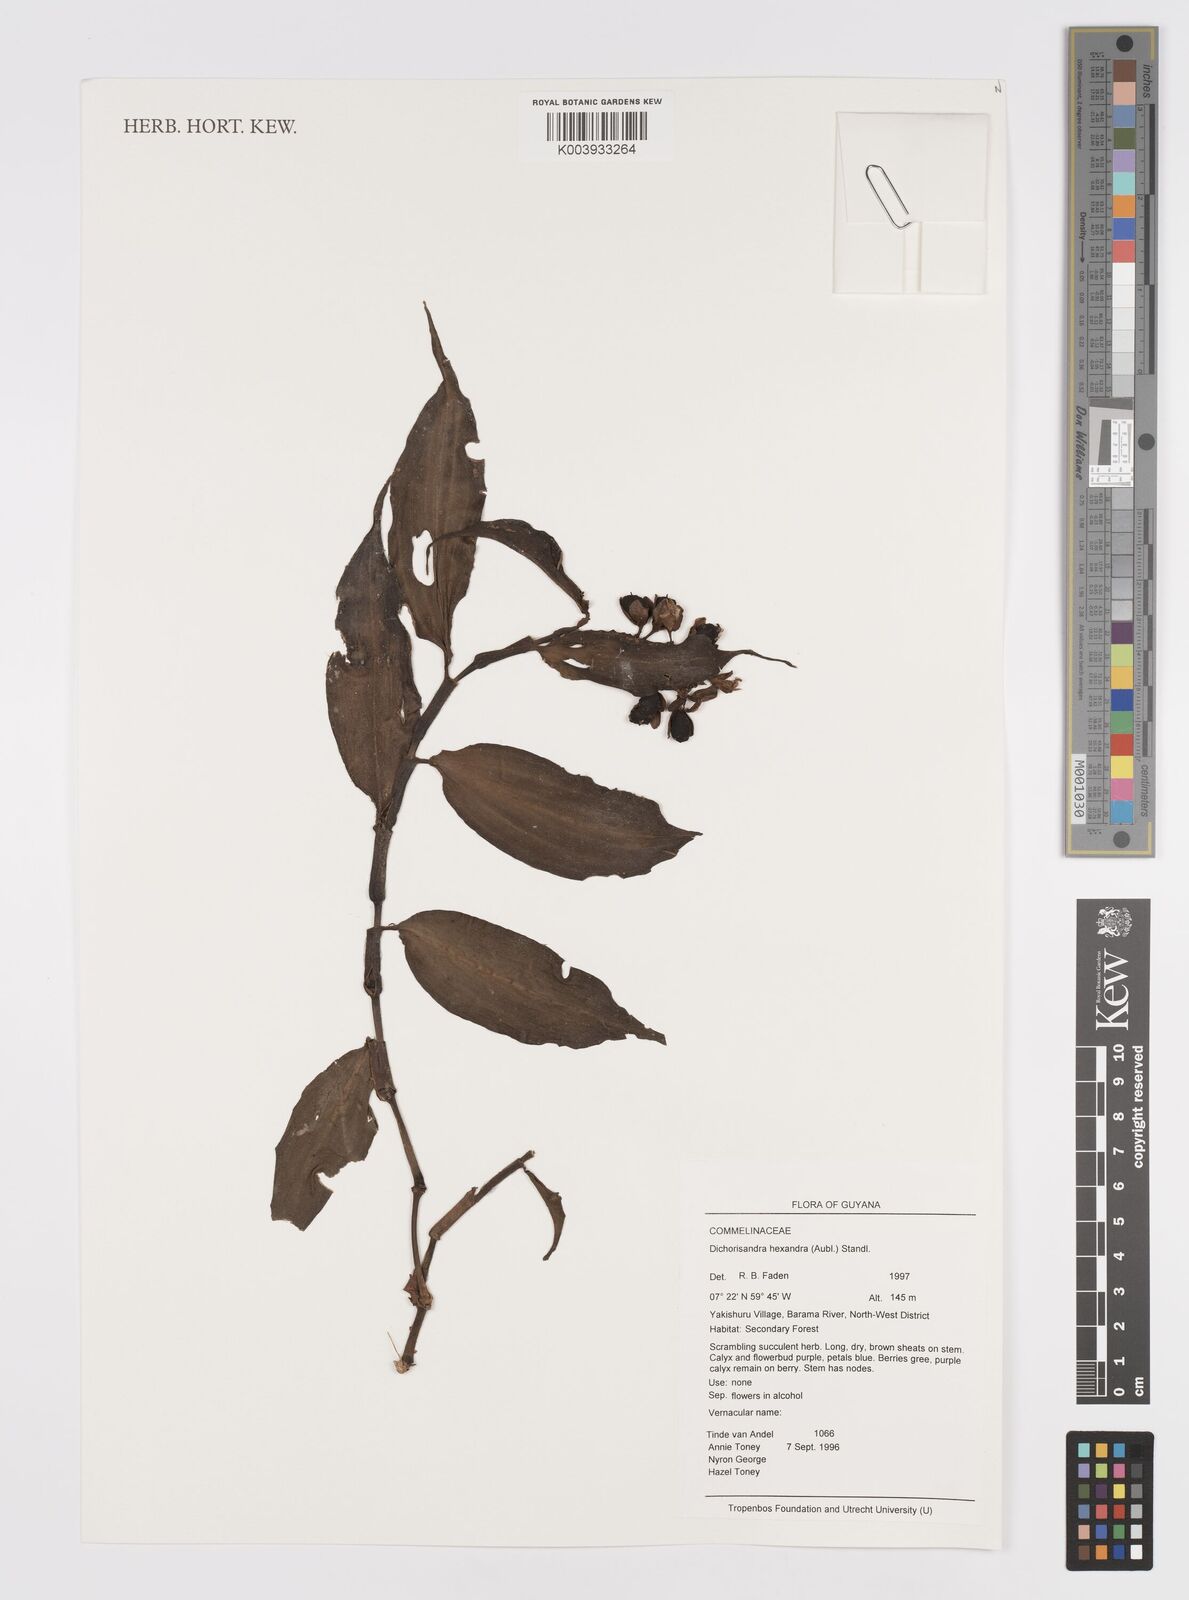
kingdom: Plantae
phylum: Tracheophyta
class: Liliopsida
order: Commelinales
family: Commelinaceae
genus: Dichorisandra
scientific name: Dichorisandra hexandra
